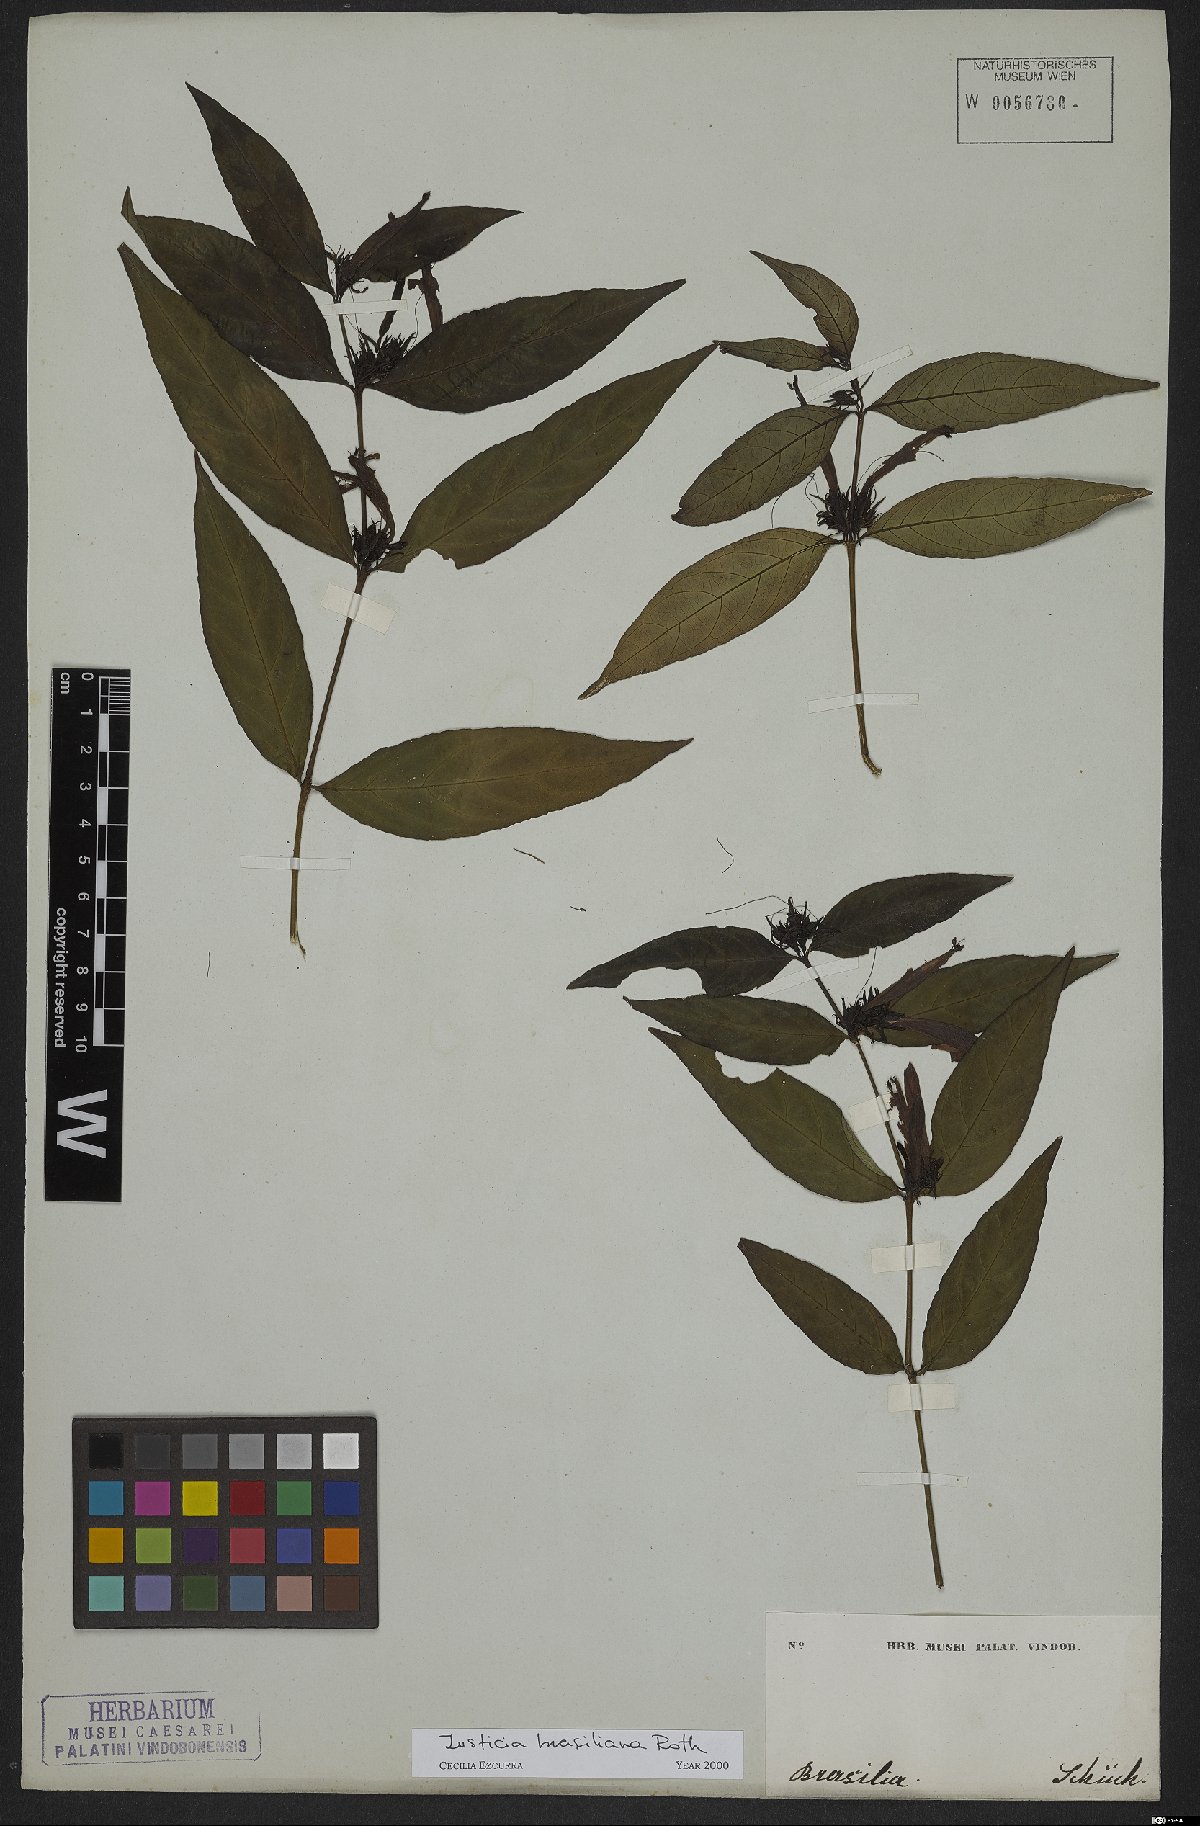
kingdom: Plantae
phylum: Tracheophyta
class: Magnoliopsida
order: Lamiales
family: Acanthaceae
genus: Justicia
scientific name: Justicia brasiliana
